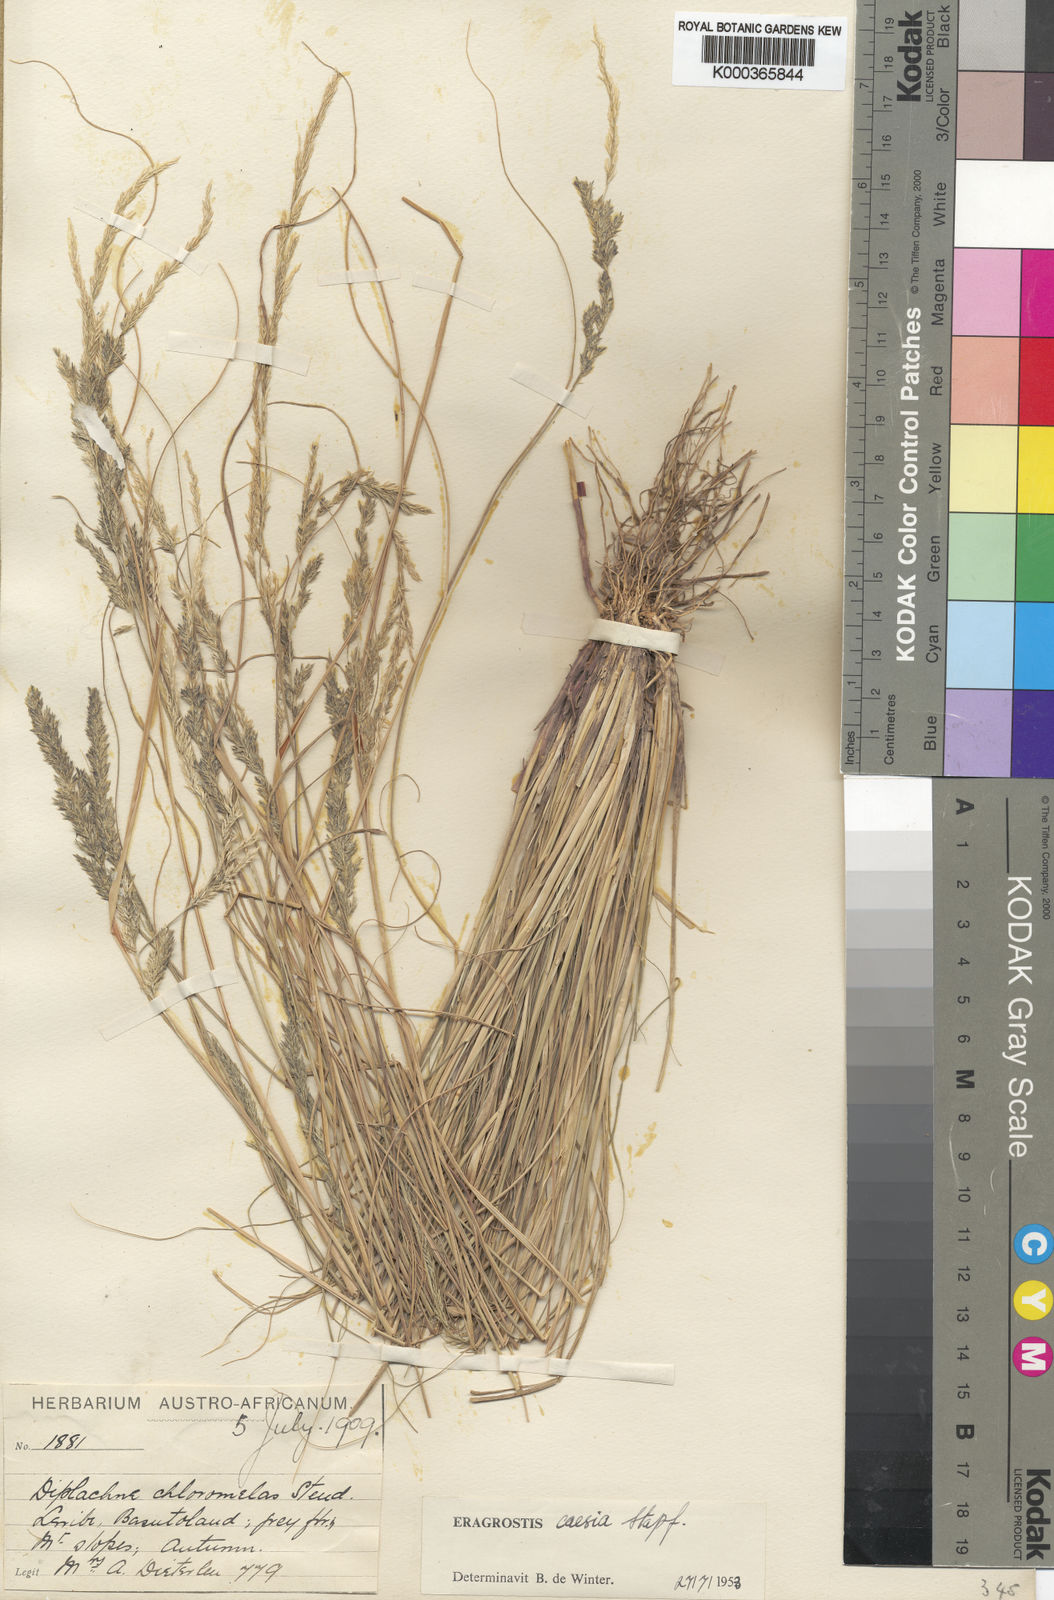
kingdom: Plantae
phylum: Tracheophyta
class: Liliopsida
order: Poales
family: Poaceae
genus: Eragrostis
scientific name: Eragrostis caesia
